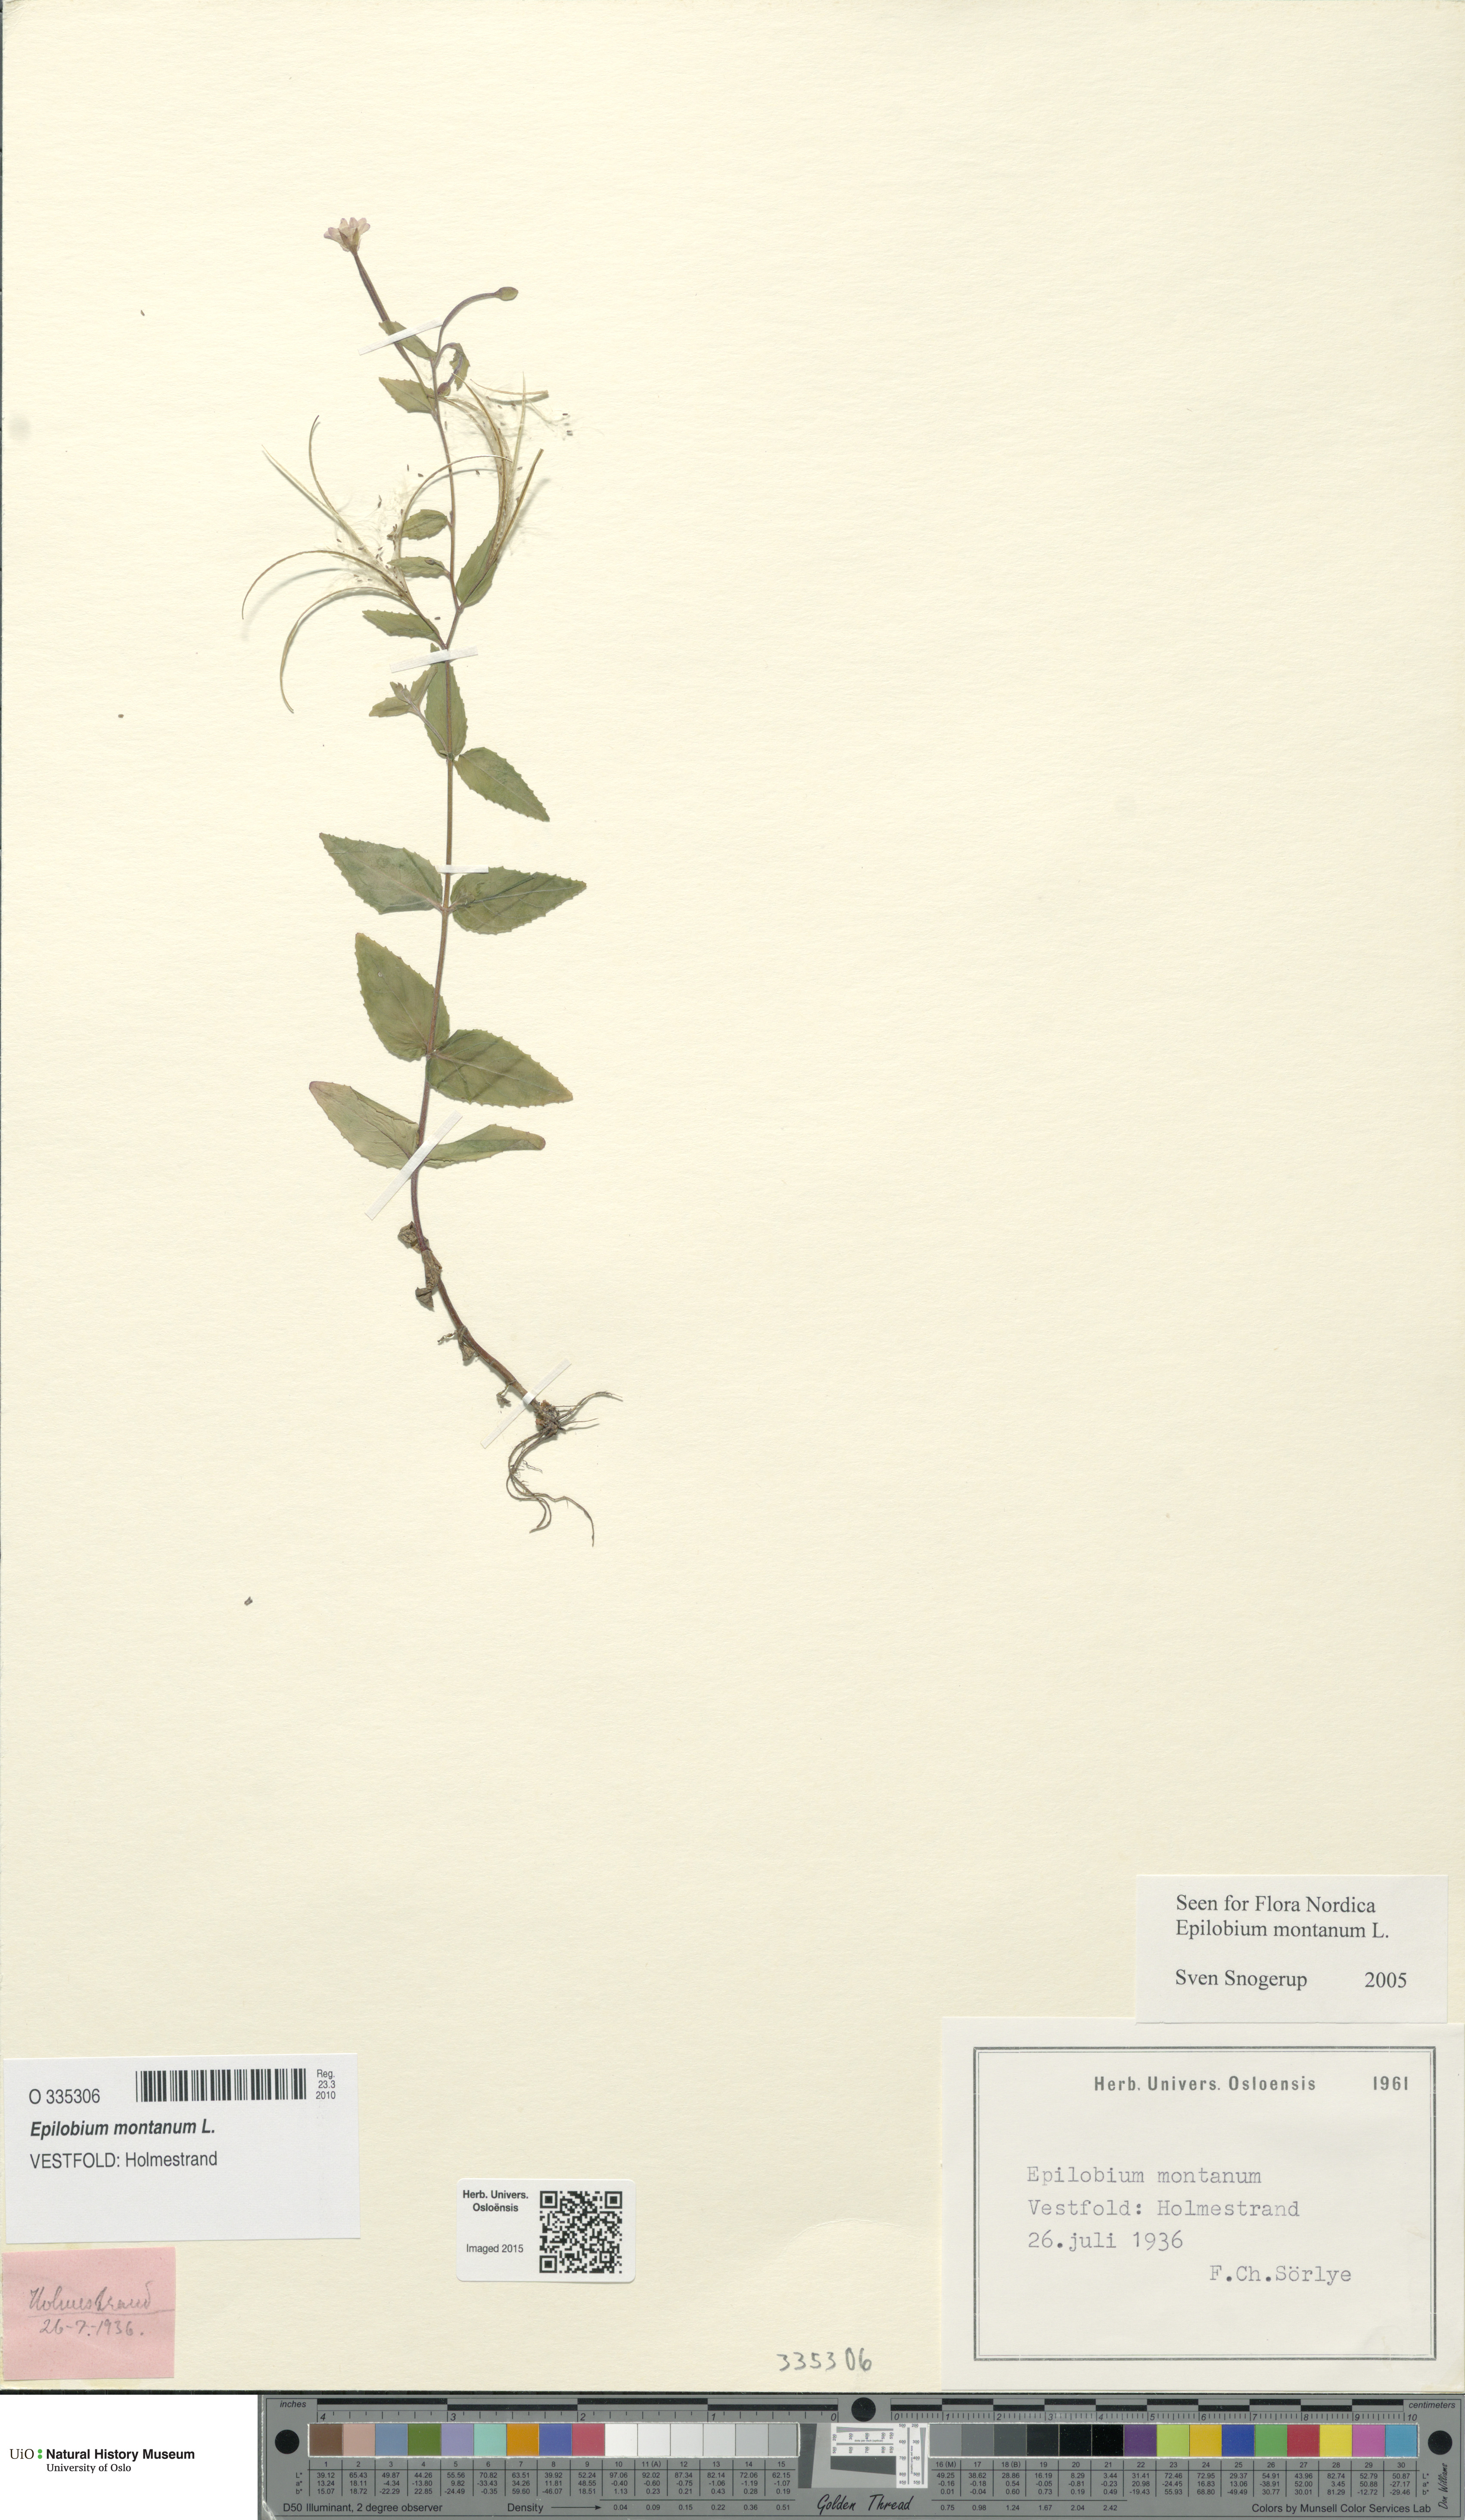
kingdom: Plantae
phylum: Tracheophyta
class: Magnoliopsida
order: Myrtales
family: Onagraceae
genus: Epilobium
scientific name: Epilobium montanum
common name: Broad-leaved willowherb
